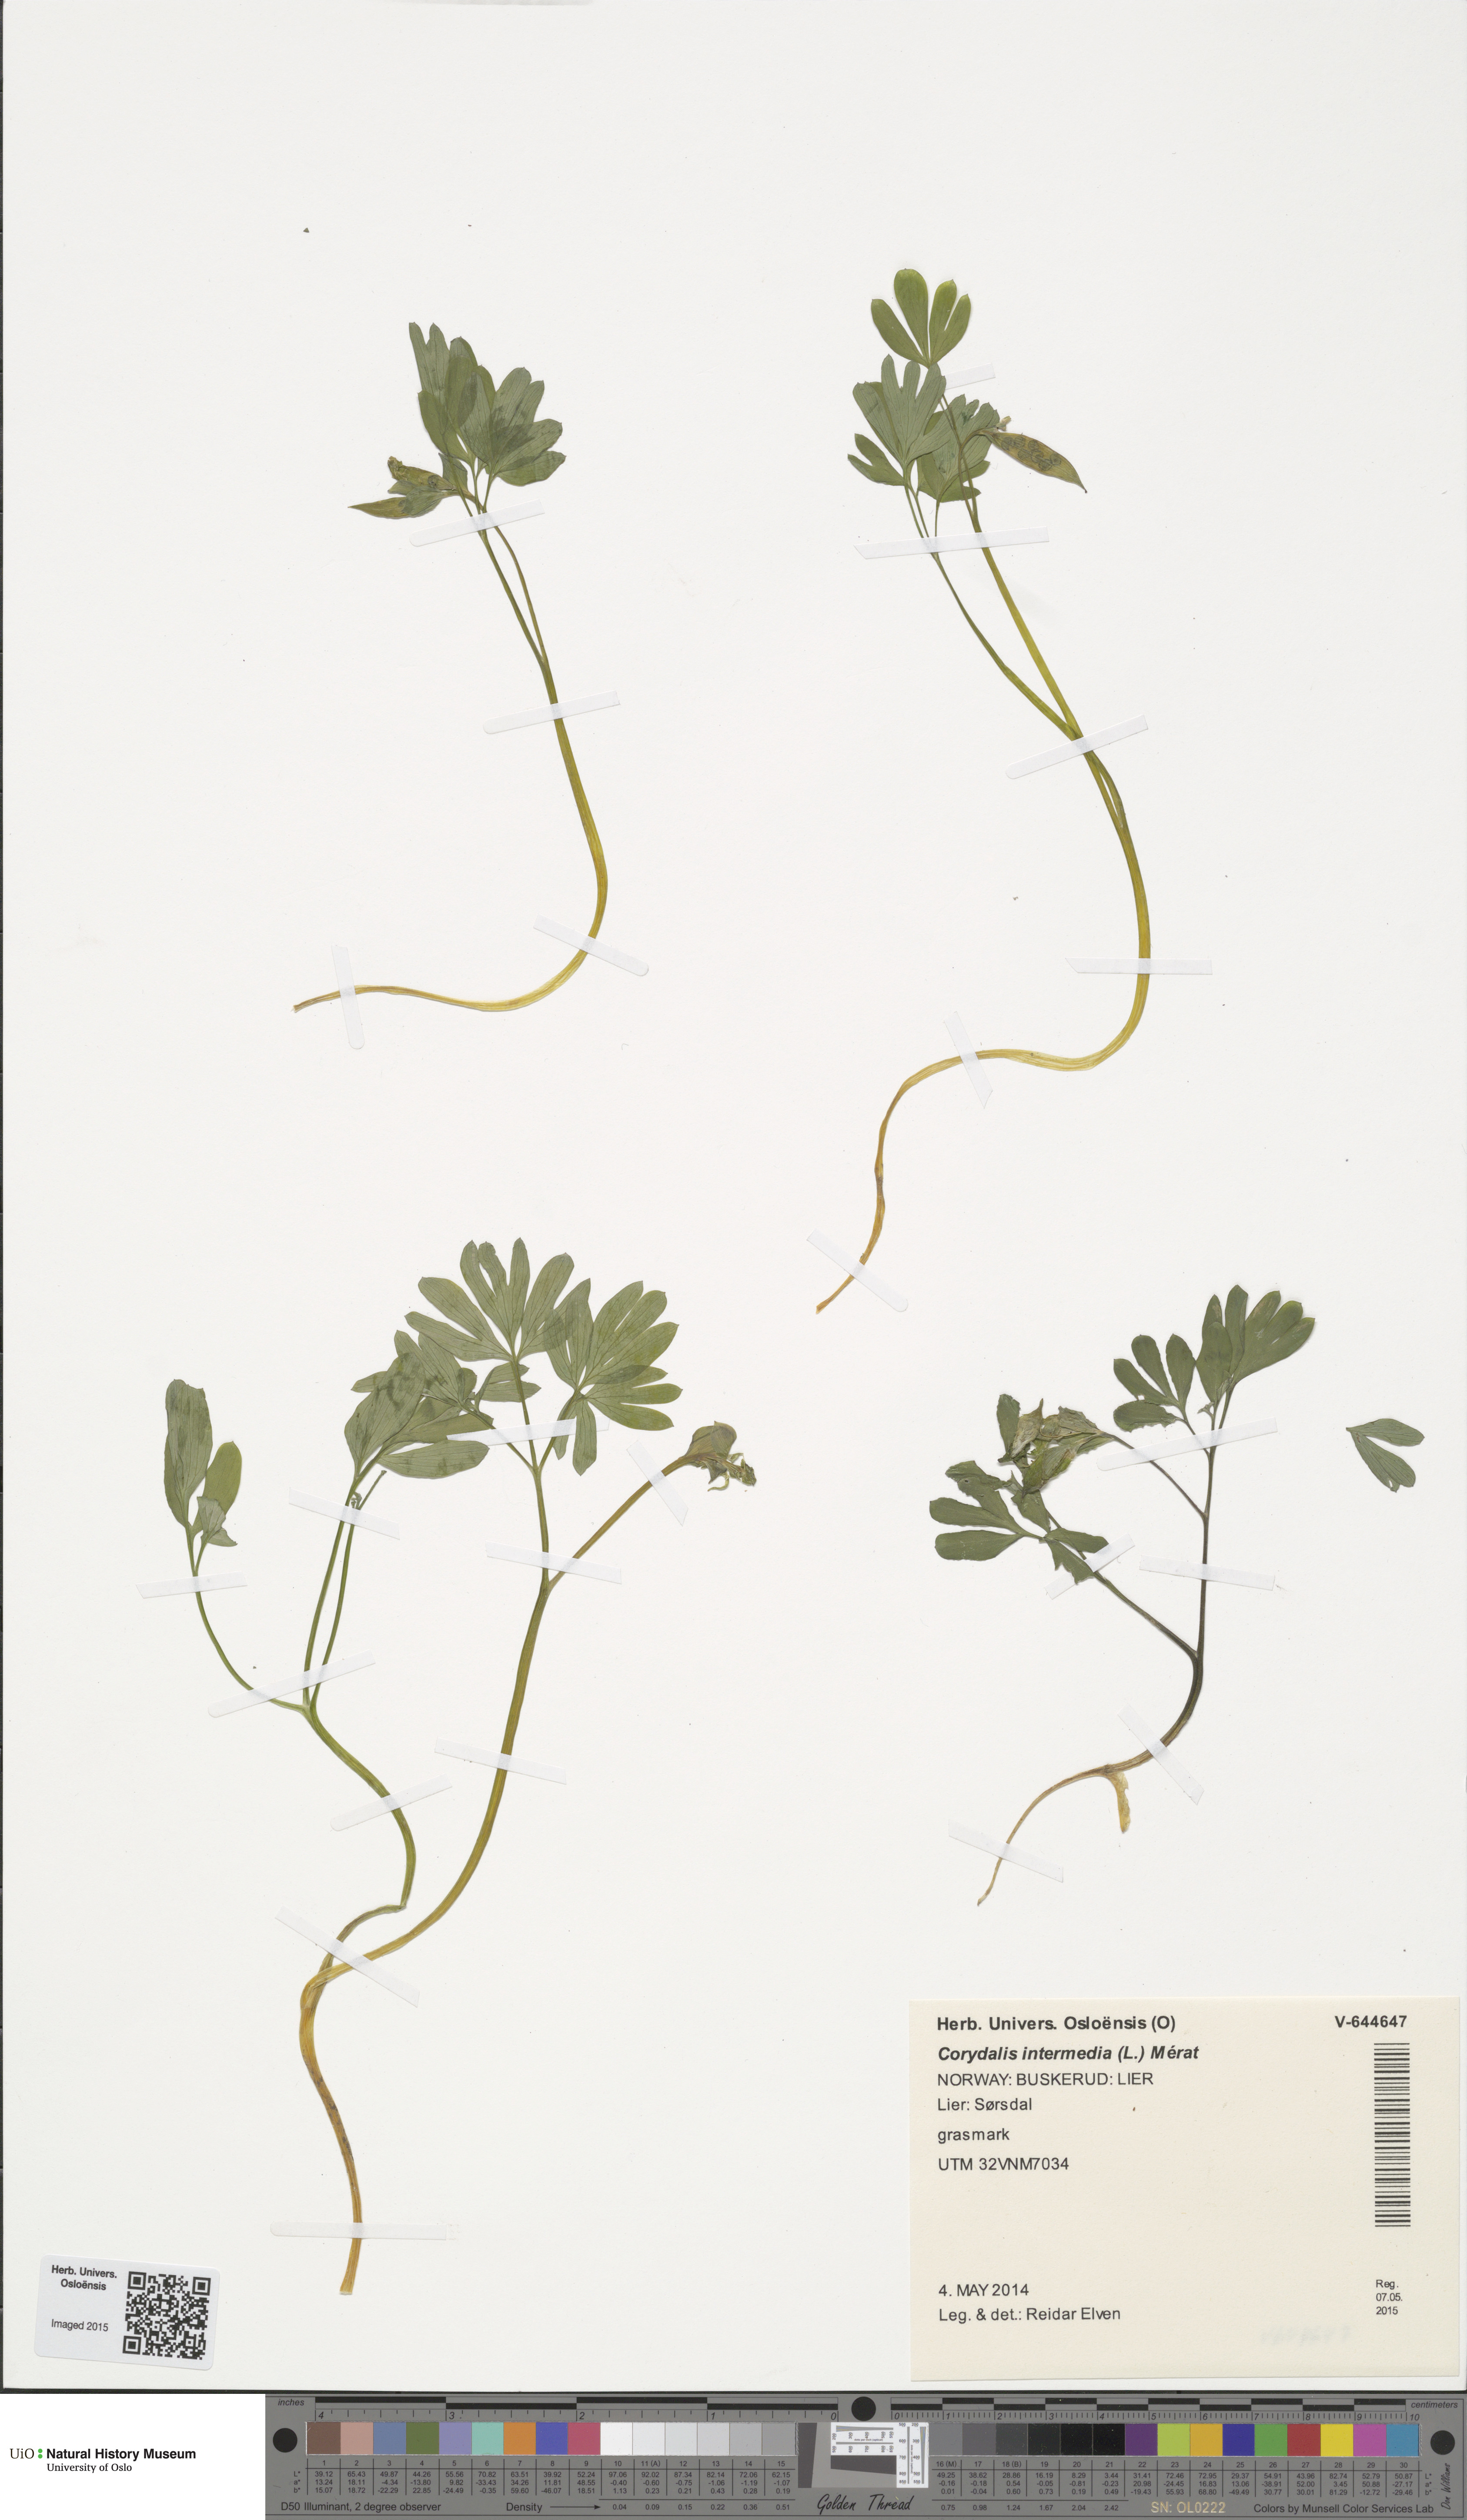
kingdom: Plantae
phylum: Tracheophyta
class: Magnoliopsida
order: Ranunculales
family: Papaveraceae
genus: Corydalis
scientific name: Corydalis intermedia
